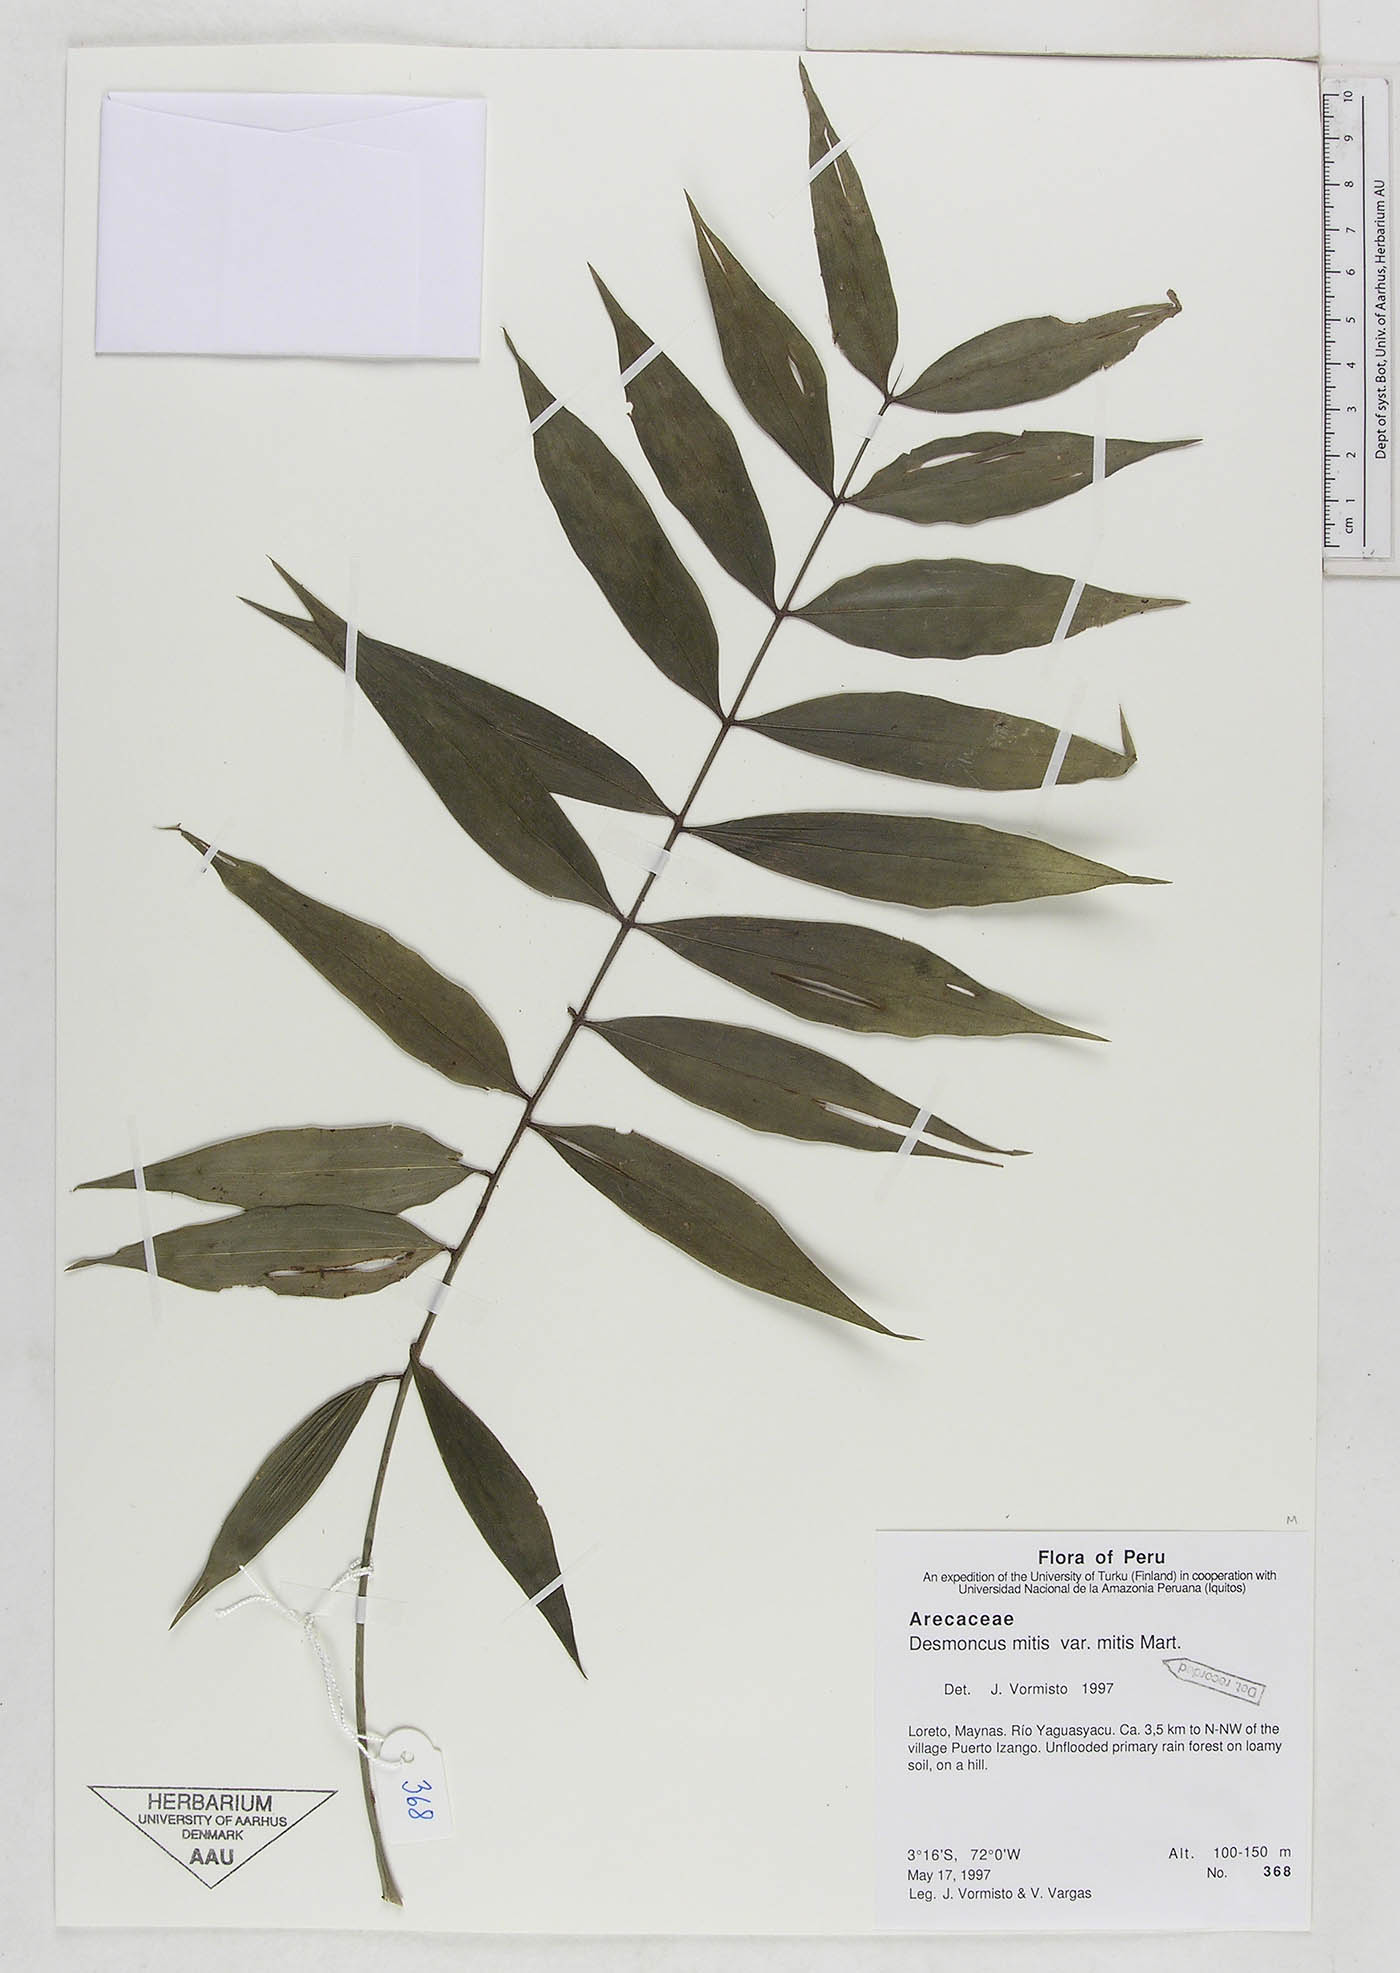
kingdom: Plantae
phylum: Tracheophyta
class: Liliopsida
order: Arecales
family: Arecaceae
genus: Desmoncus
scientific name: Desmoncus mitis
